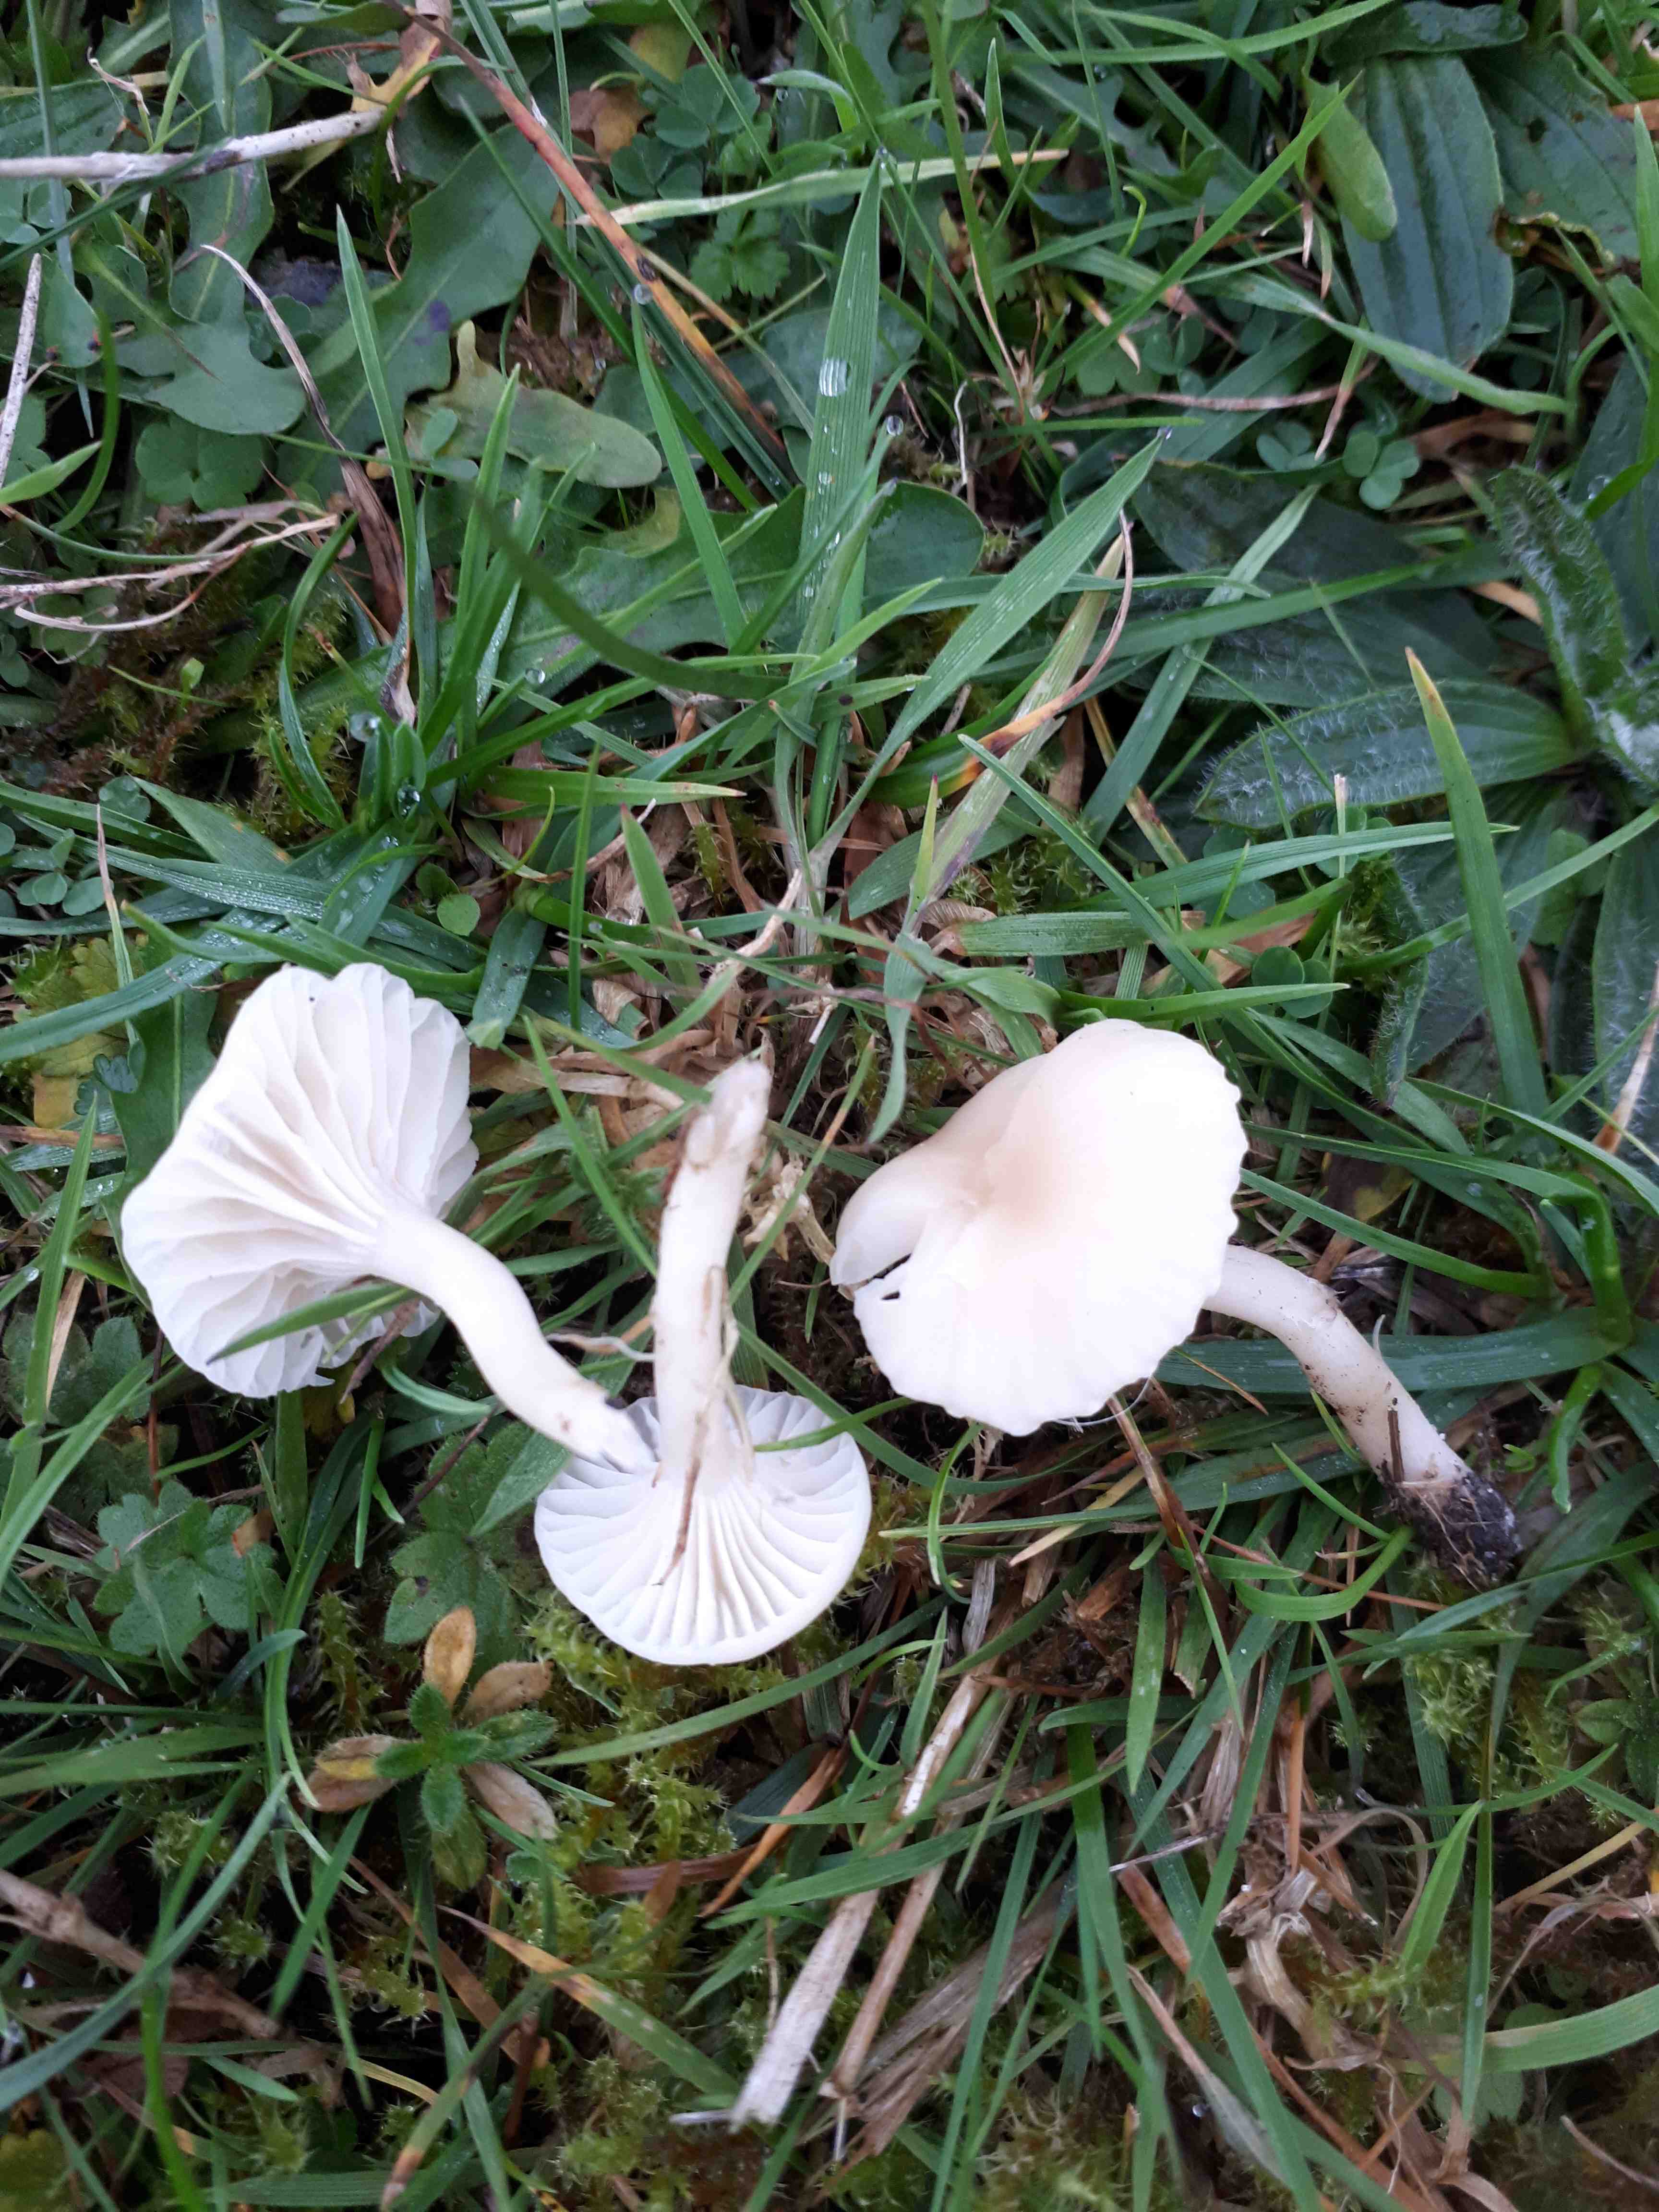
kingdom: Fungi
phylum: Basidiomycota
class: Agaricomycetes
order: Agaricales
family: Hygrophoraceae
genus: Cuphophyllus
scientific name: Cuphophyllus
